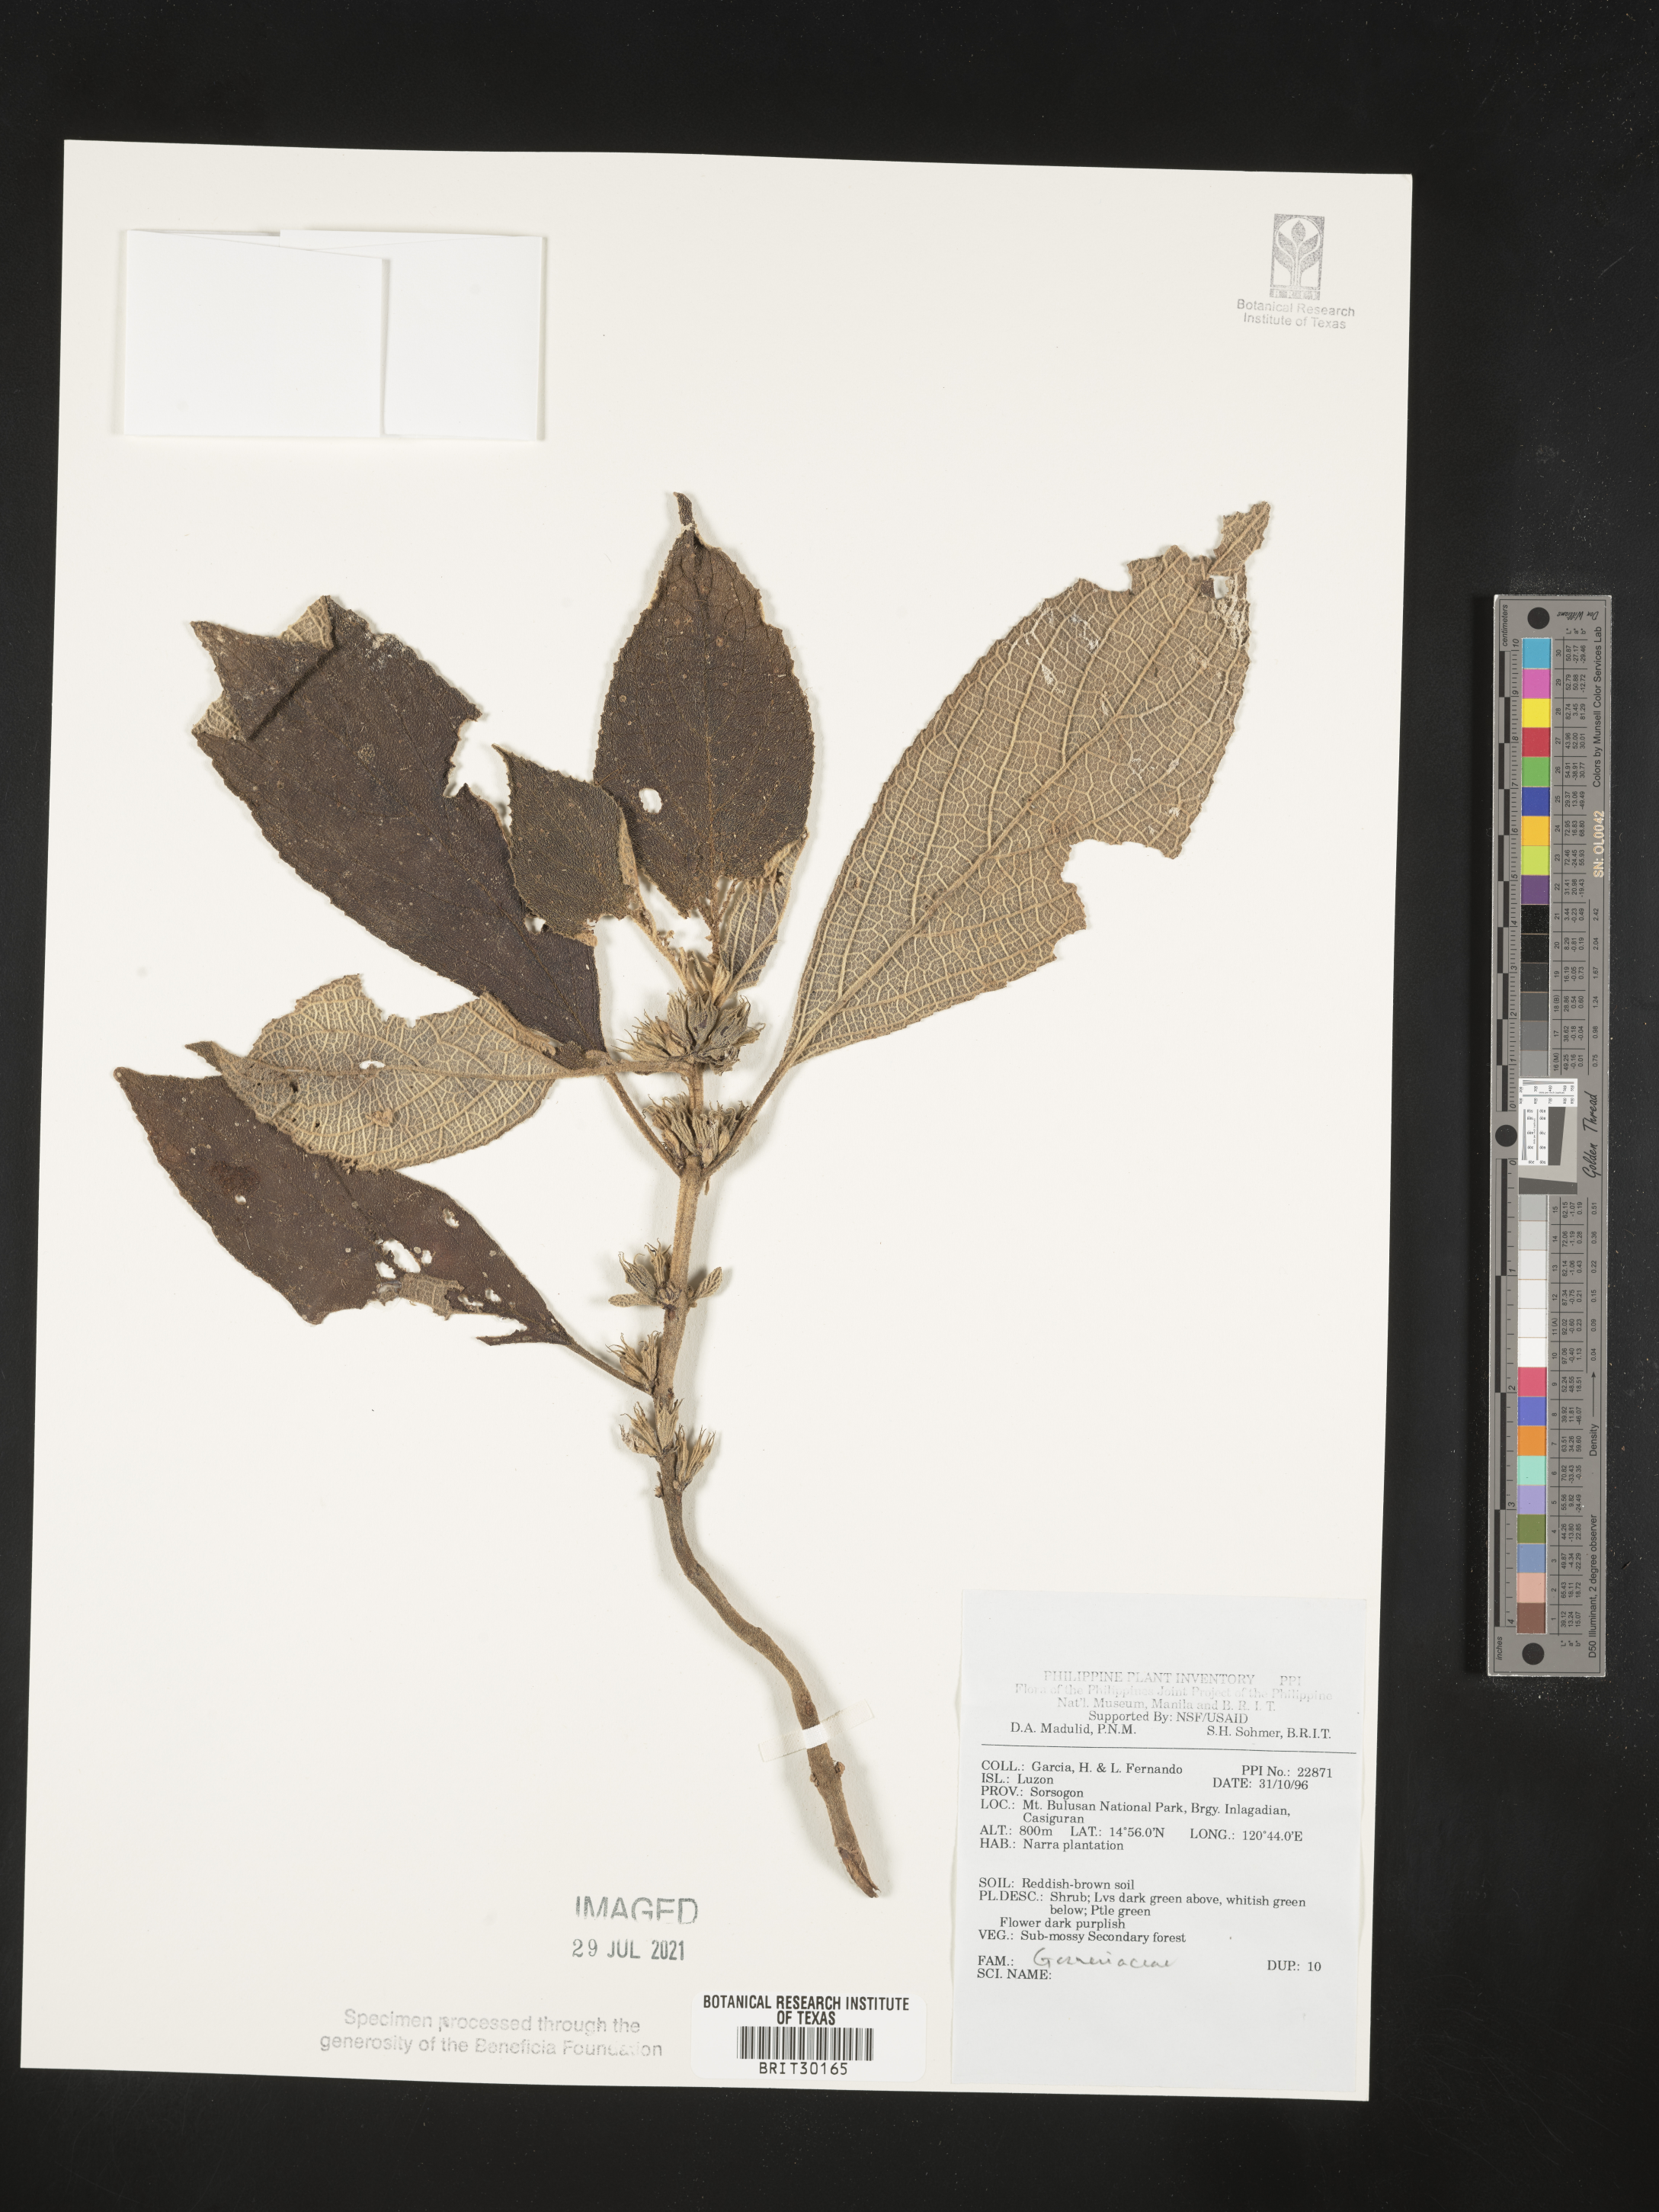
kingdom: Plantae
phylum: Tracheophyta
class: Magnoliopsida
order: Lamiales
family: Gesneriaceae
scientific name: Gesneriaceae
